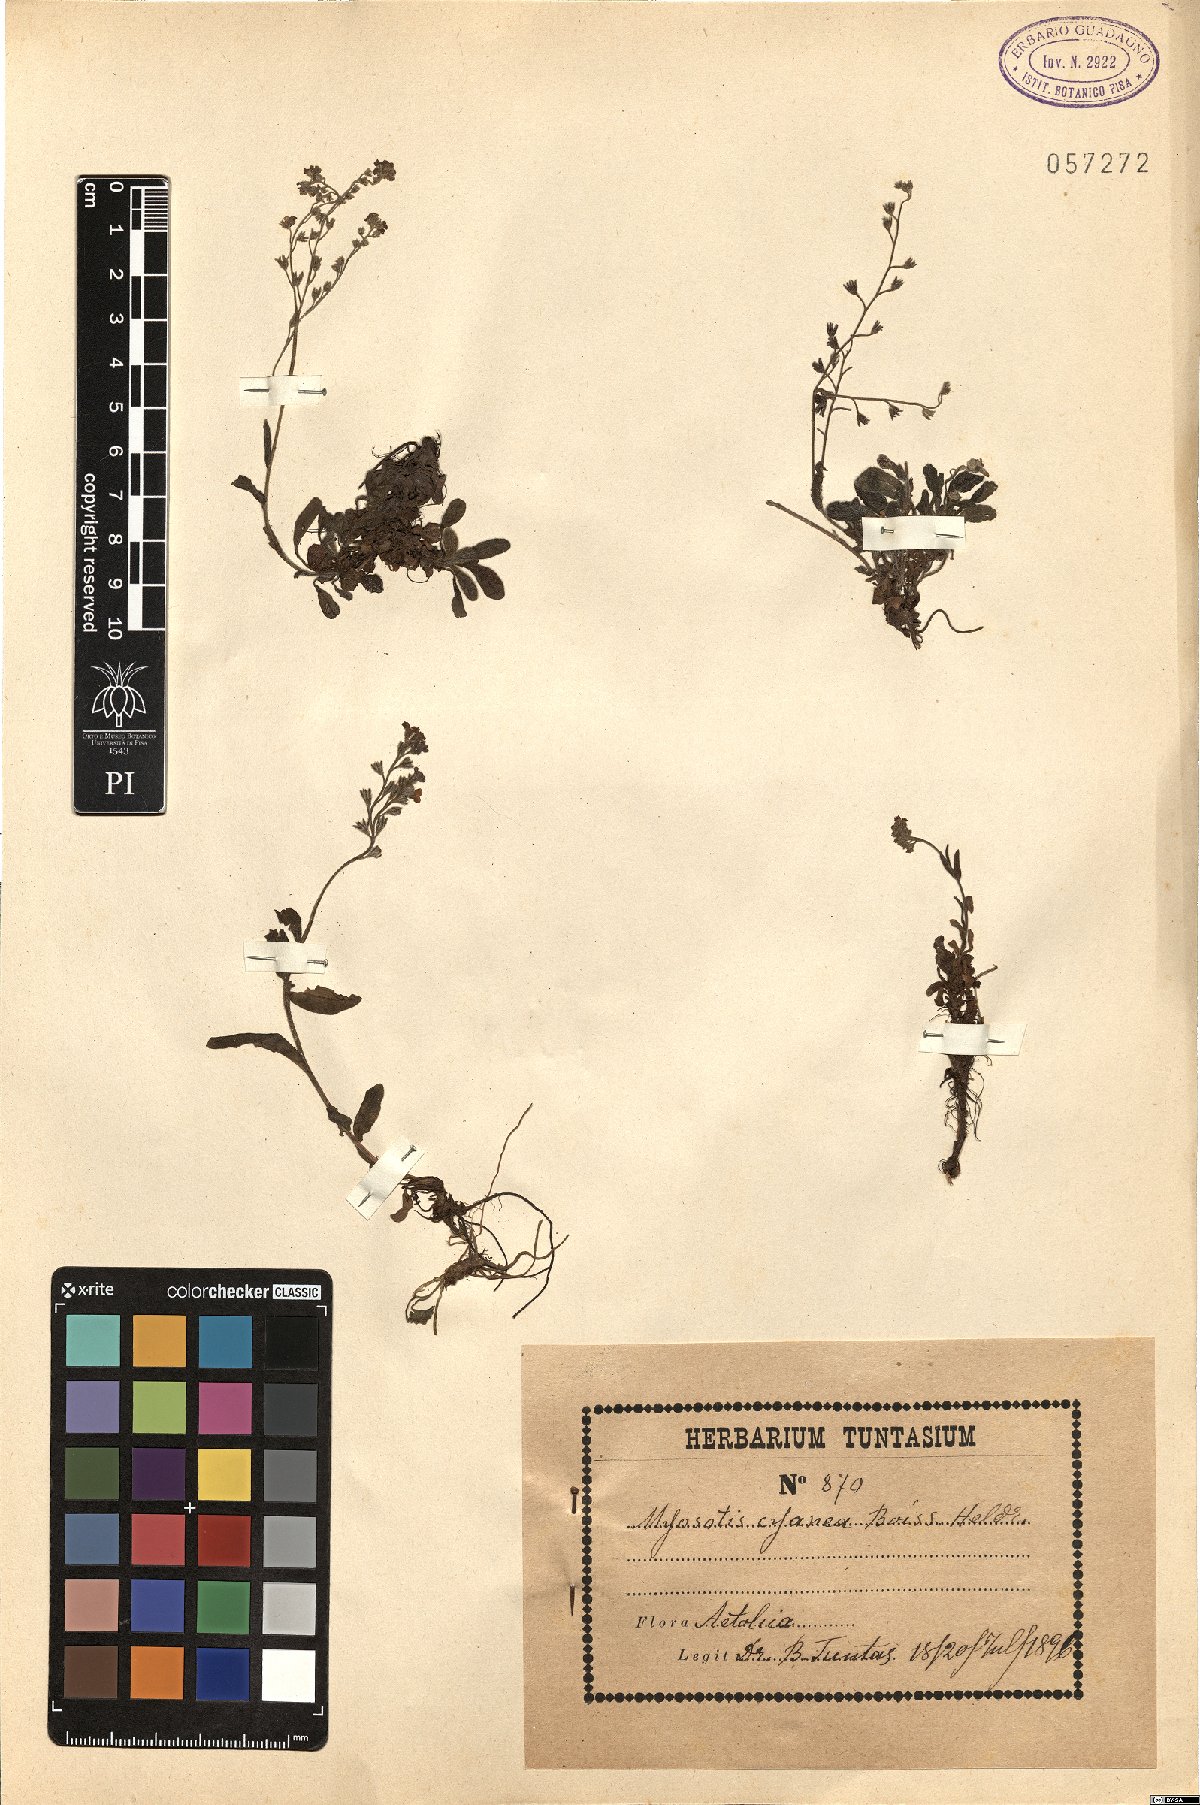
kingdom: Plantae
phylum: Tracheophyta
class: Magnoliopsida
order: Boraginales
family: Boraginaceae
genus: Myosotis
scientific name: Myosotis cyanea
